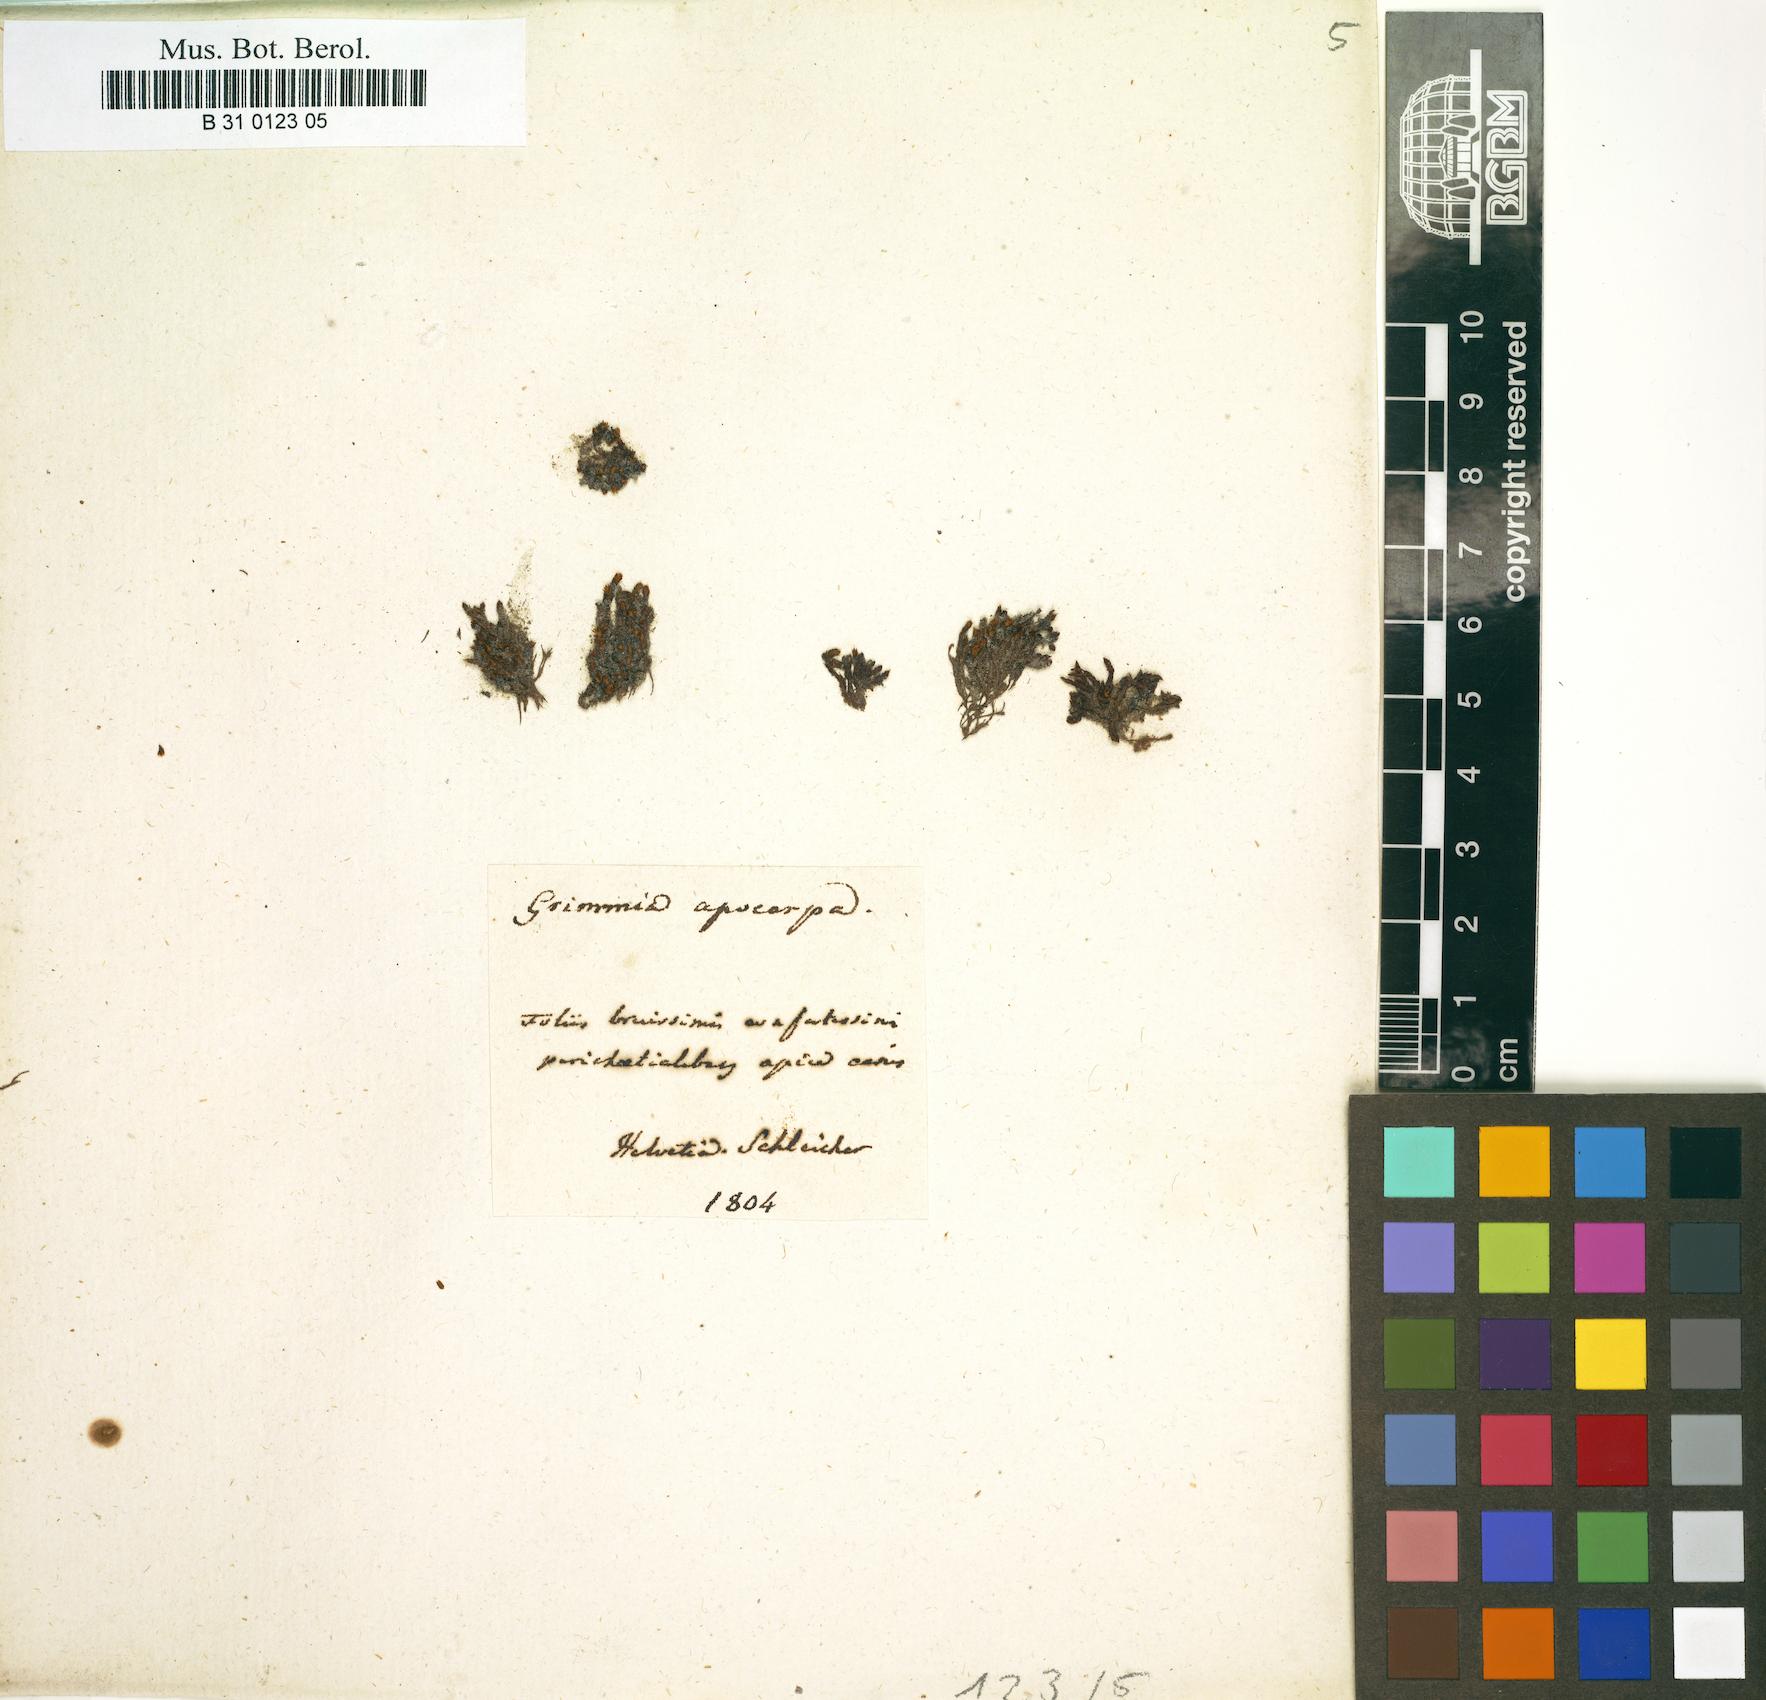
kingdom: Plantae
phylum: Bryophyta
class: Bryopsida
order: Grimmiales
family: Grimmiaceae
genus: Schistidium
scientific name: Schistidium apocarpum
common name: Radiate bloom moss
